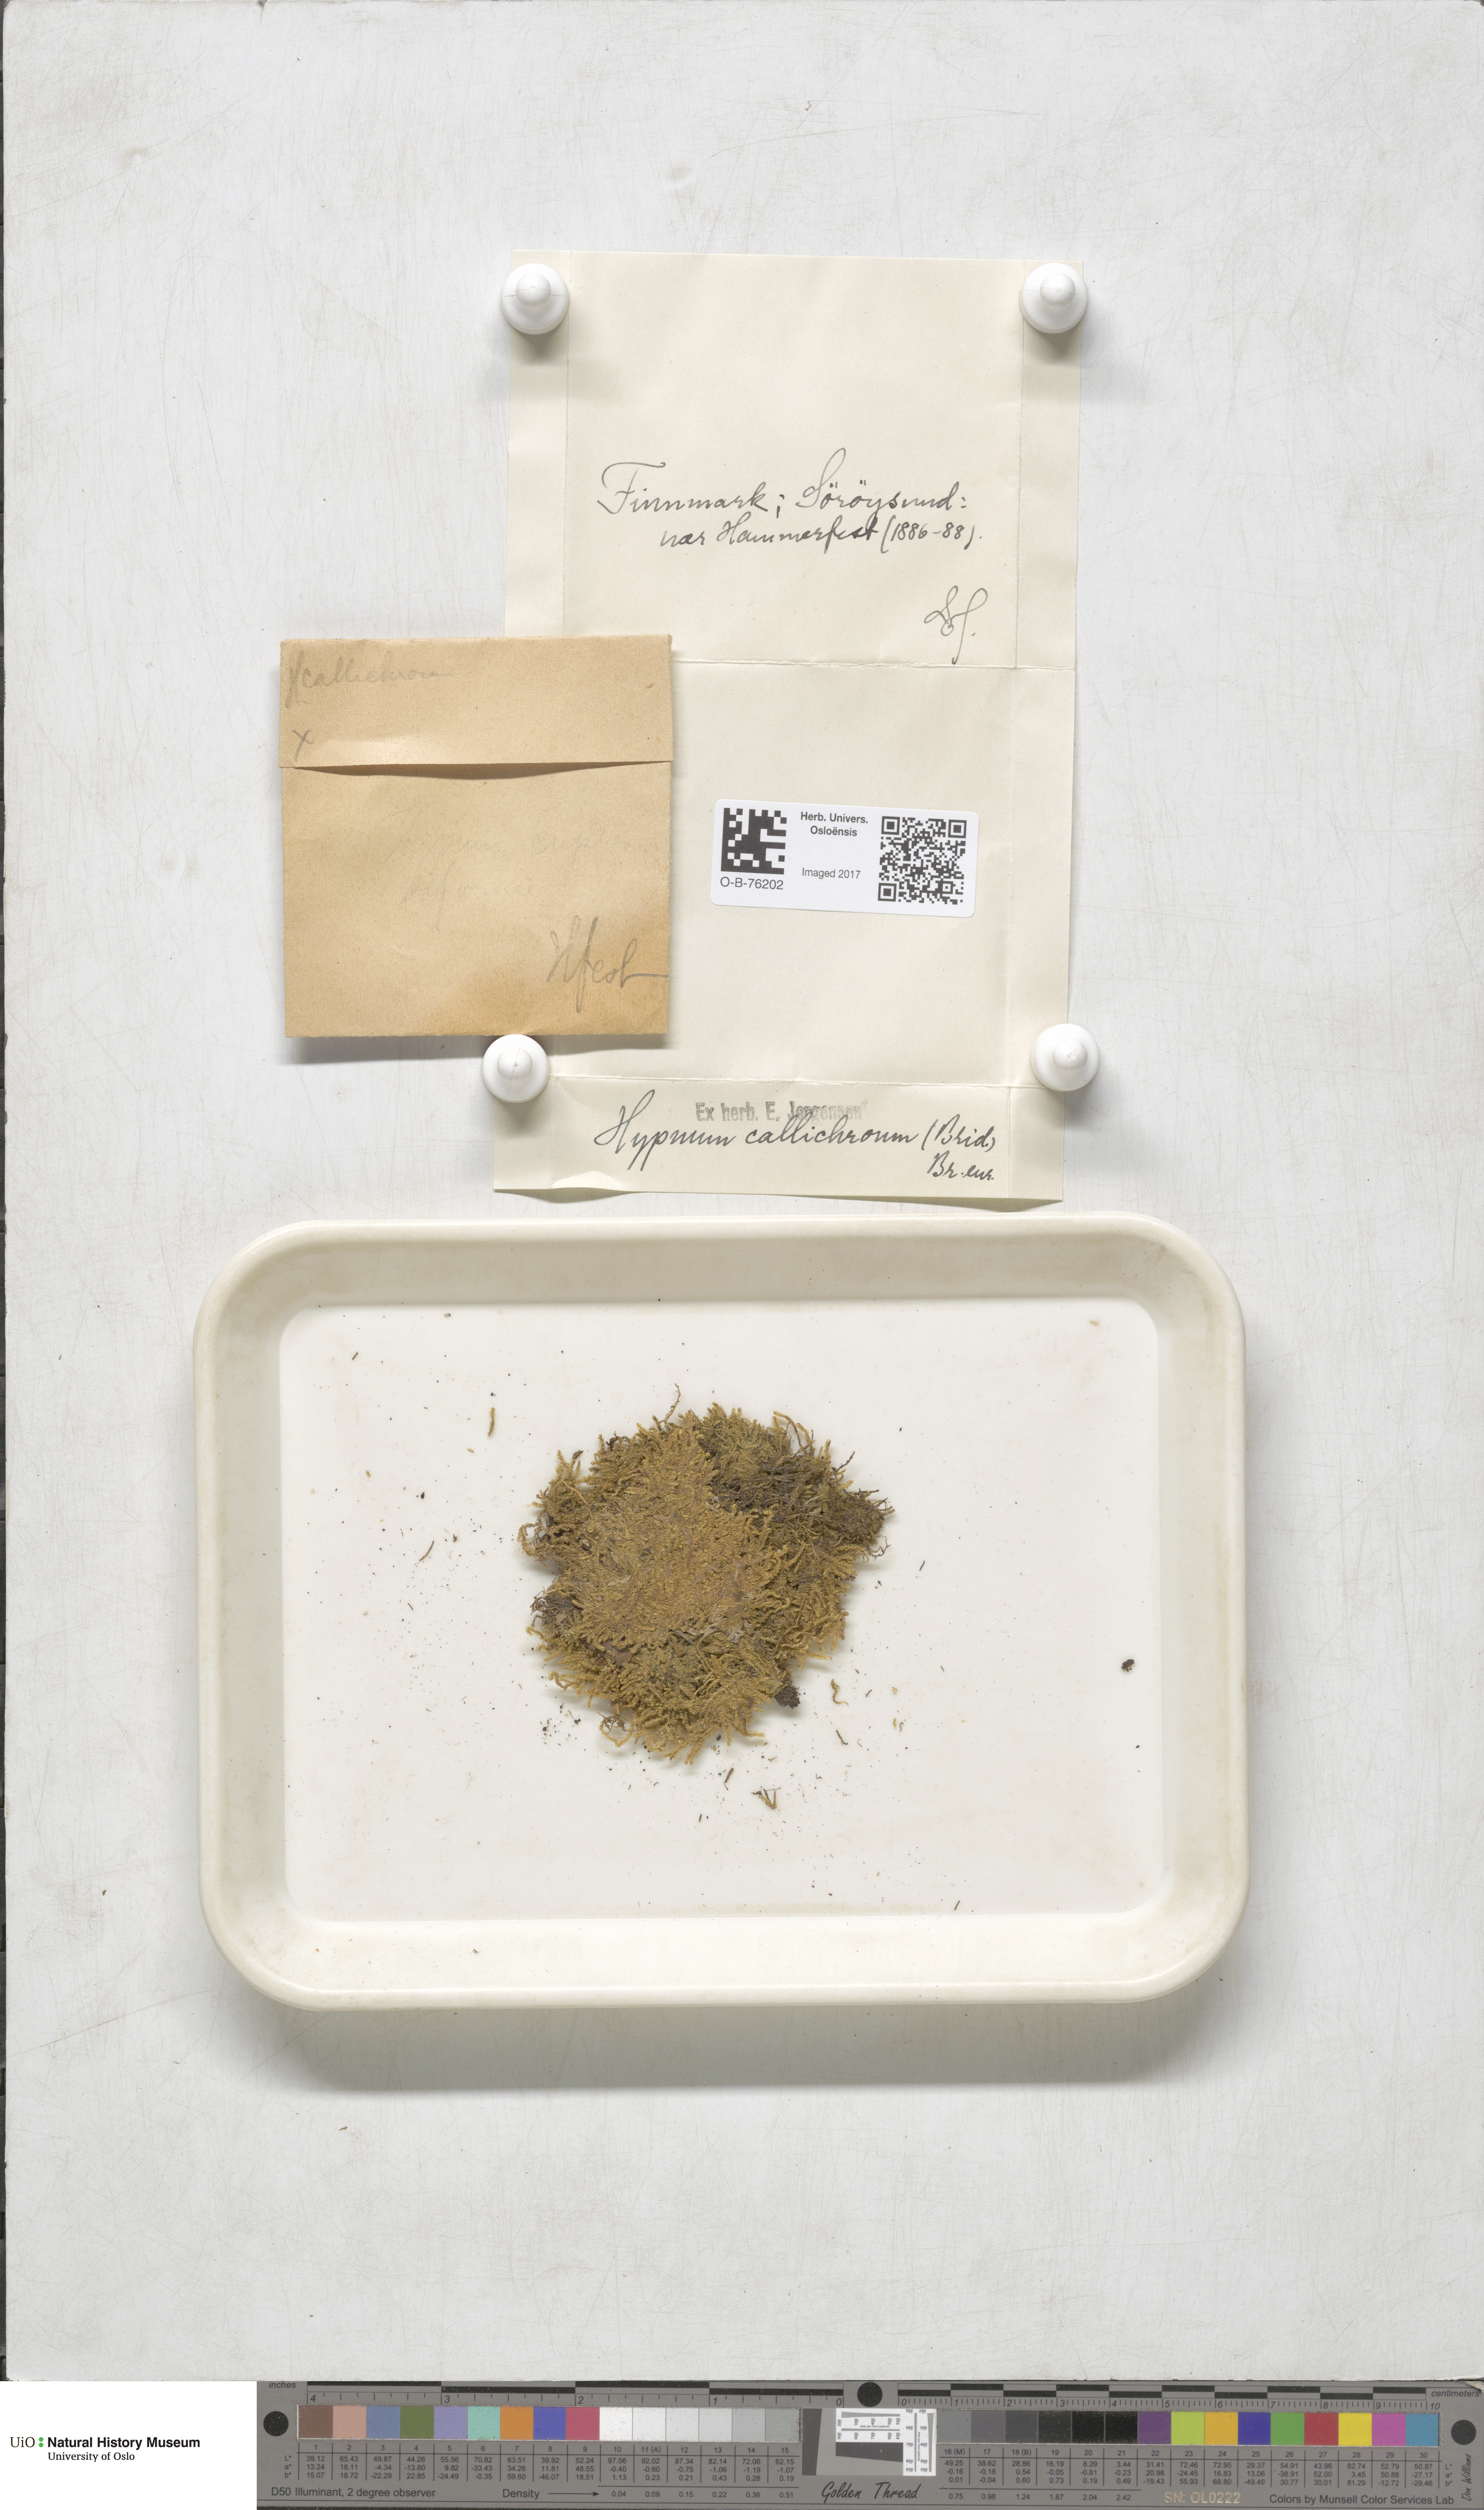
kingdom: Plantae
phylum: Bryophyta
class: Bryopsida
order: Hypnales
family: Stereodontaceae
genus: Stereodon
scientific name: Stereodon callichrous
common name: Downy plait-moss
